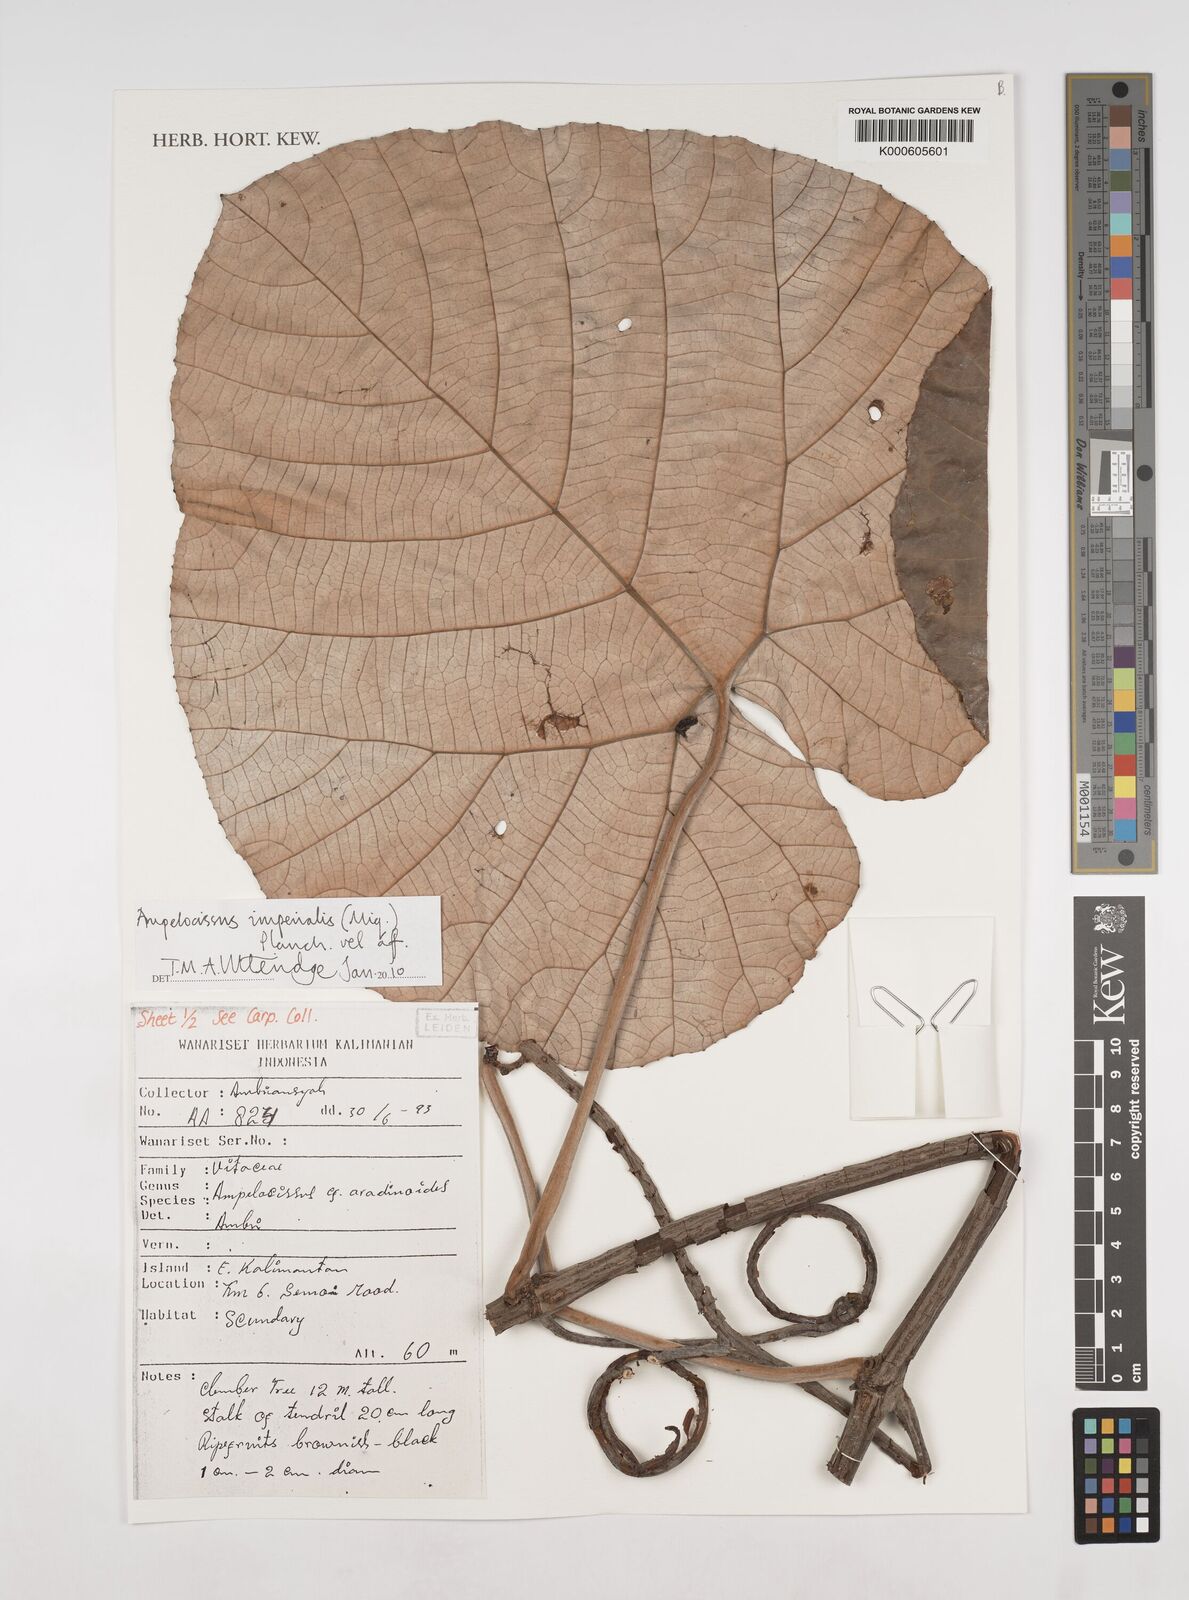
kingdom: Plantae
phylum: Tracheophyta
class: Magnoliopsida
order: Vitales
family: Vitaceae
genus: Ampelocissus
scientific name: Ampelocissus imperialis
